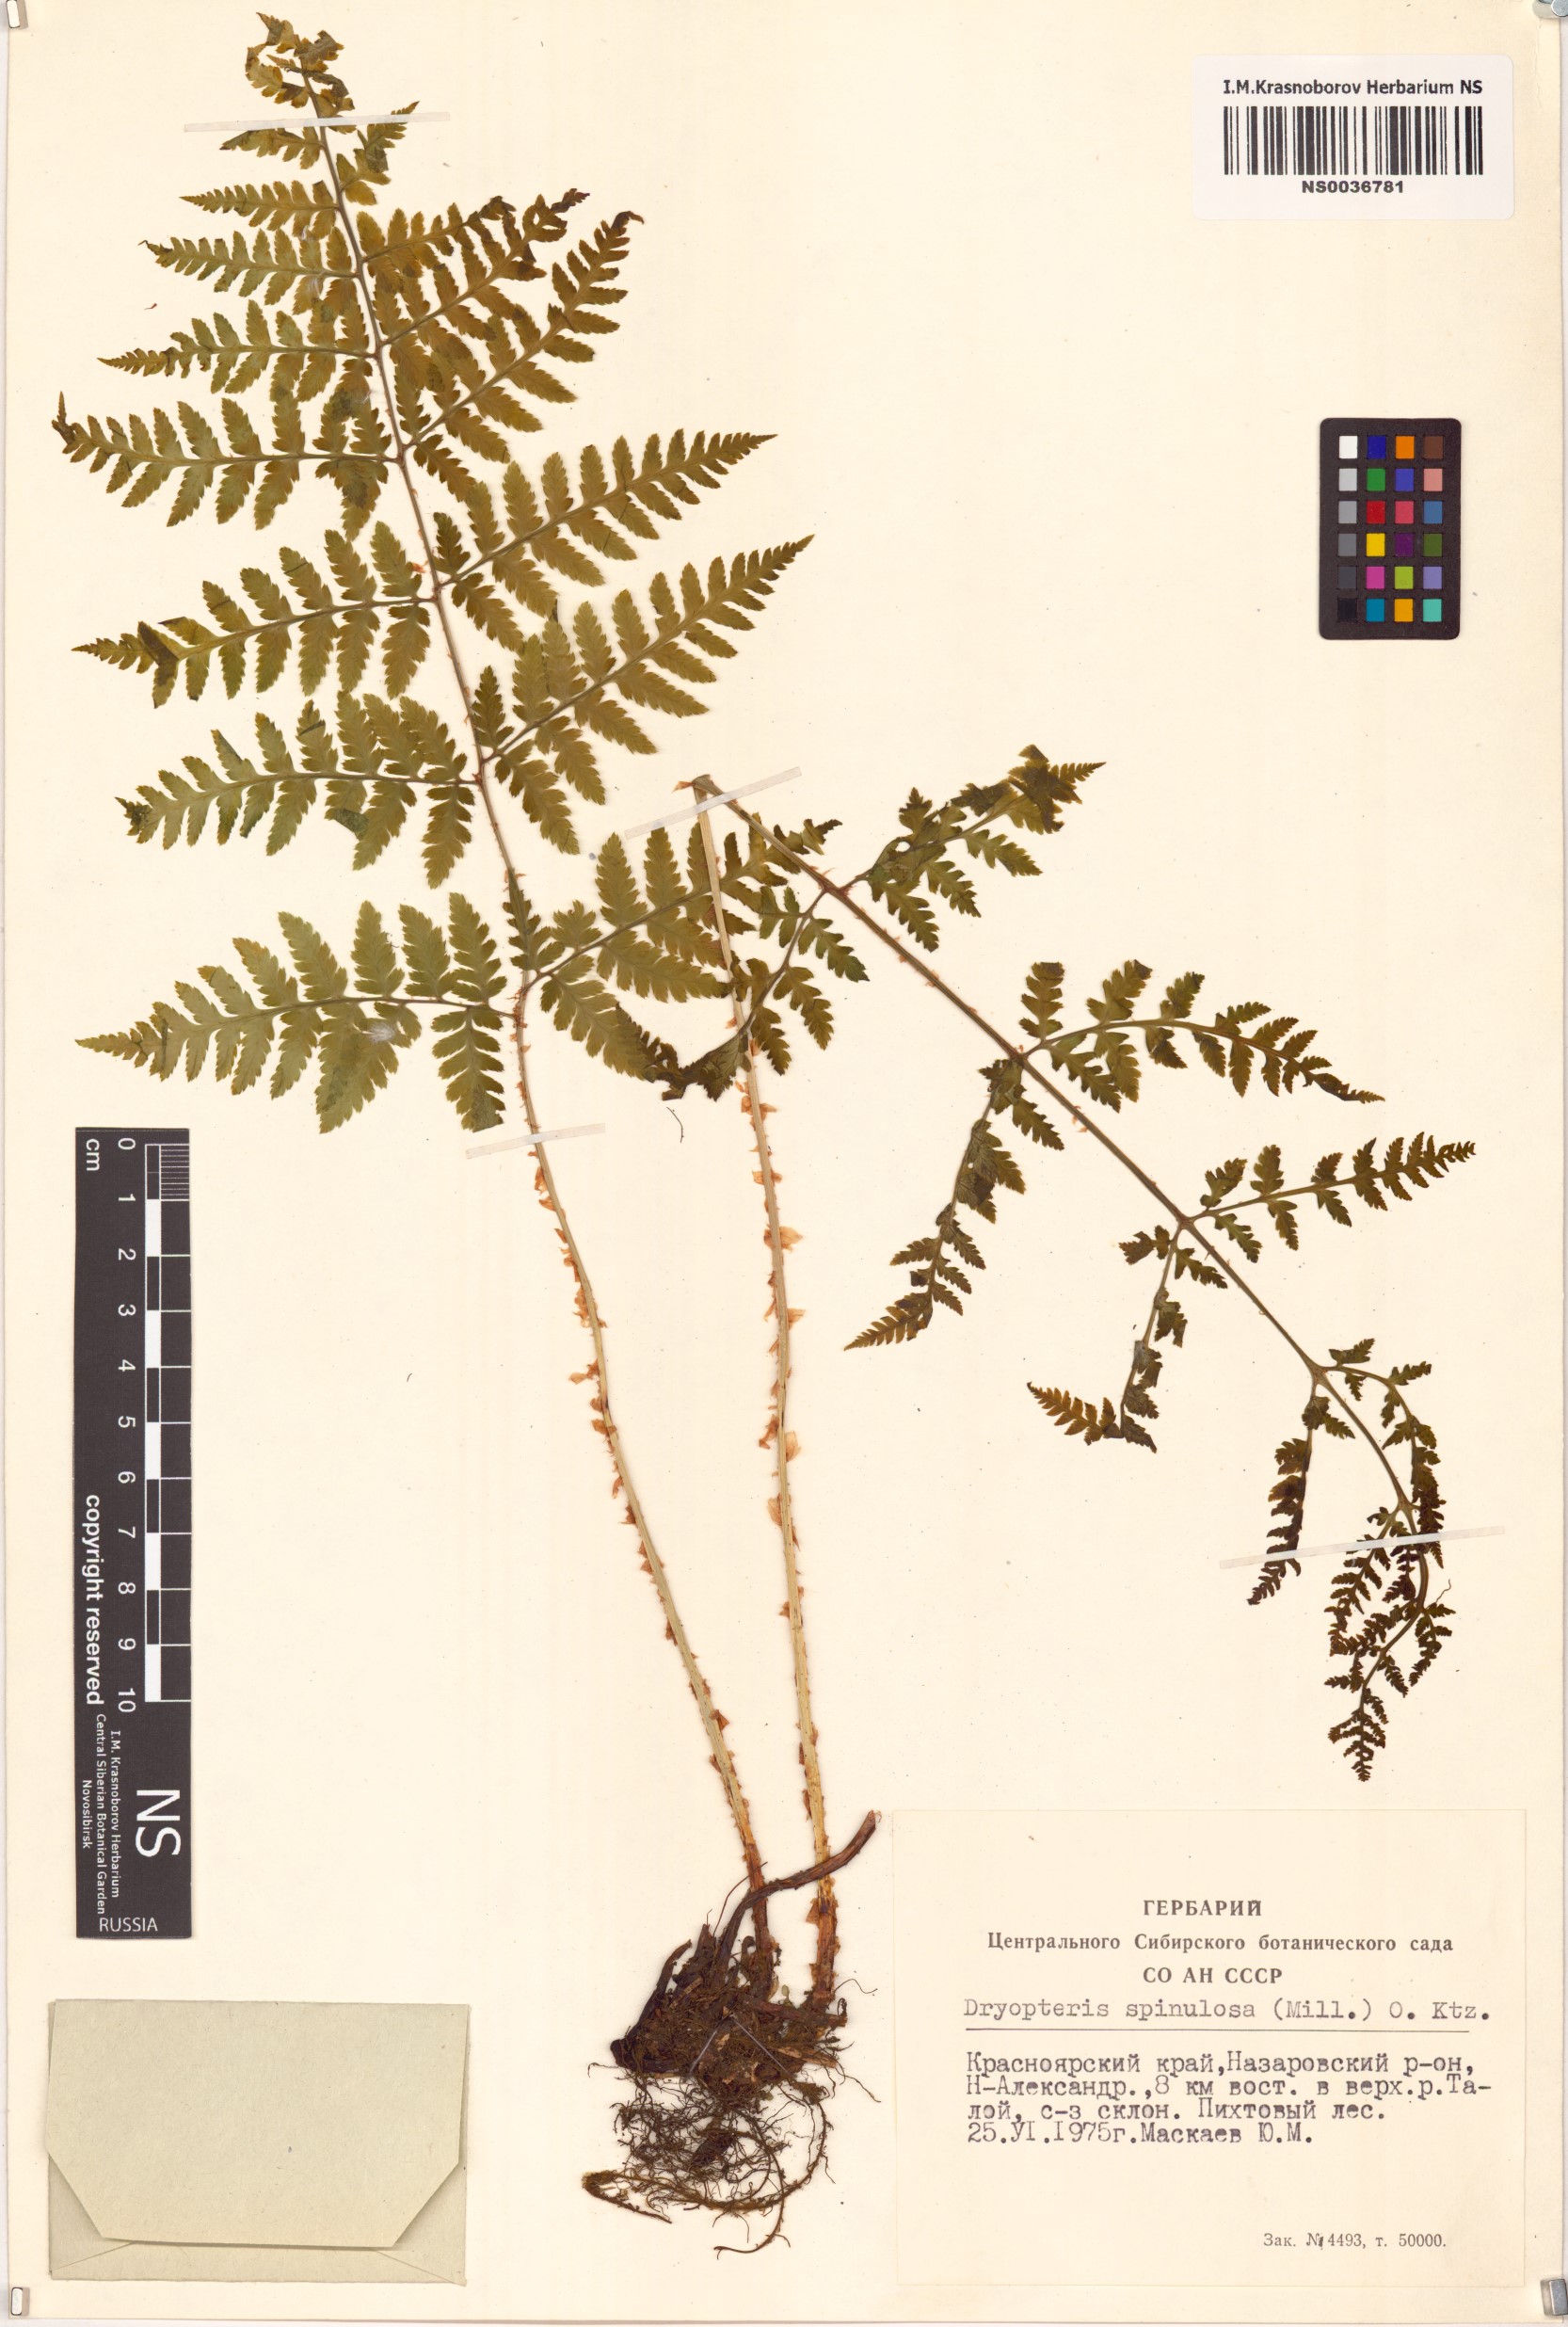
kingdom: Plantae
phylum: Tracheophyta
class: Polypodiopsida
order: Polypodiales
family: Dryopteridaceae
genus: Dryopteris
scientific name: Dryopteris carthusiana
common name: Narrow buckler-fern
